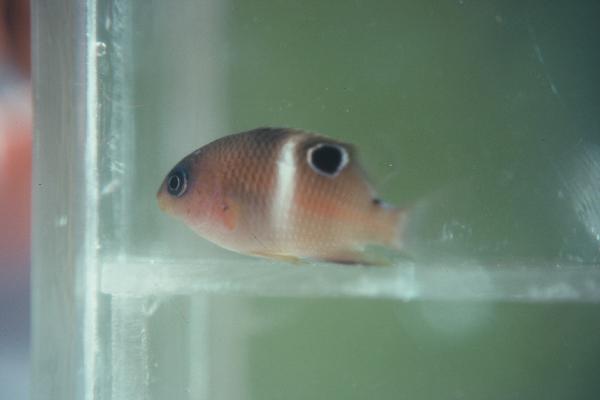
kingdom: Animalia
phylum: Chordata
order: Perciformes
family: Pomacentridae
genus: Plectroglyphidodon
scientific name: Plectroglyphidodon leucozonus
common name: White-band damsel
